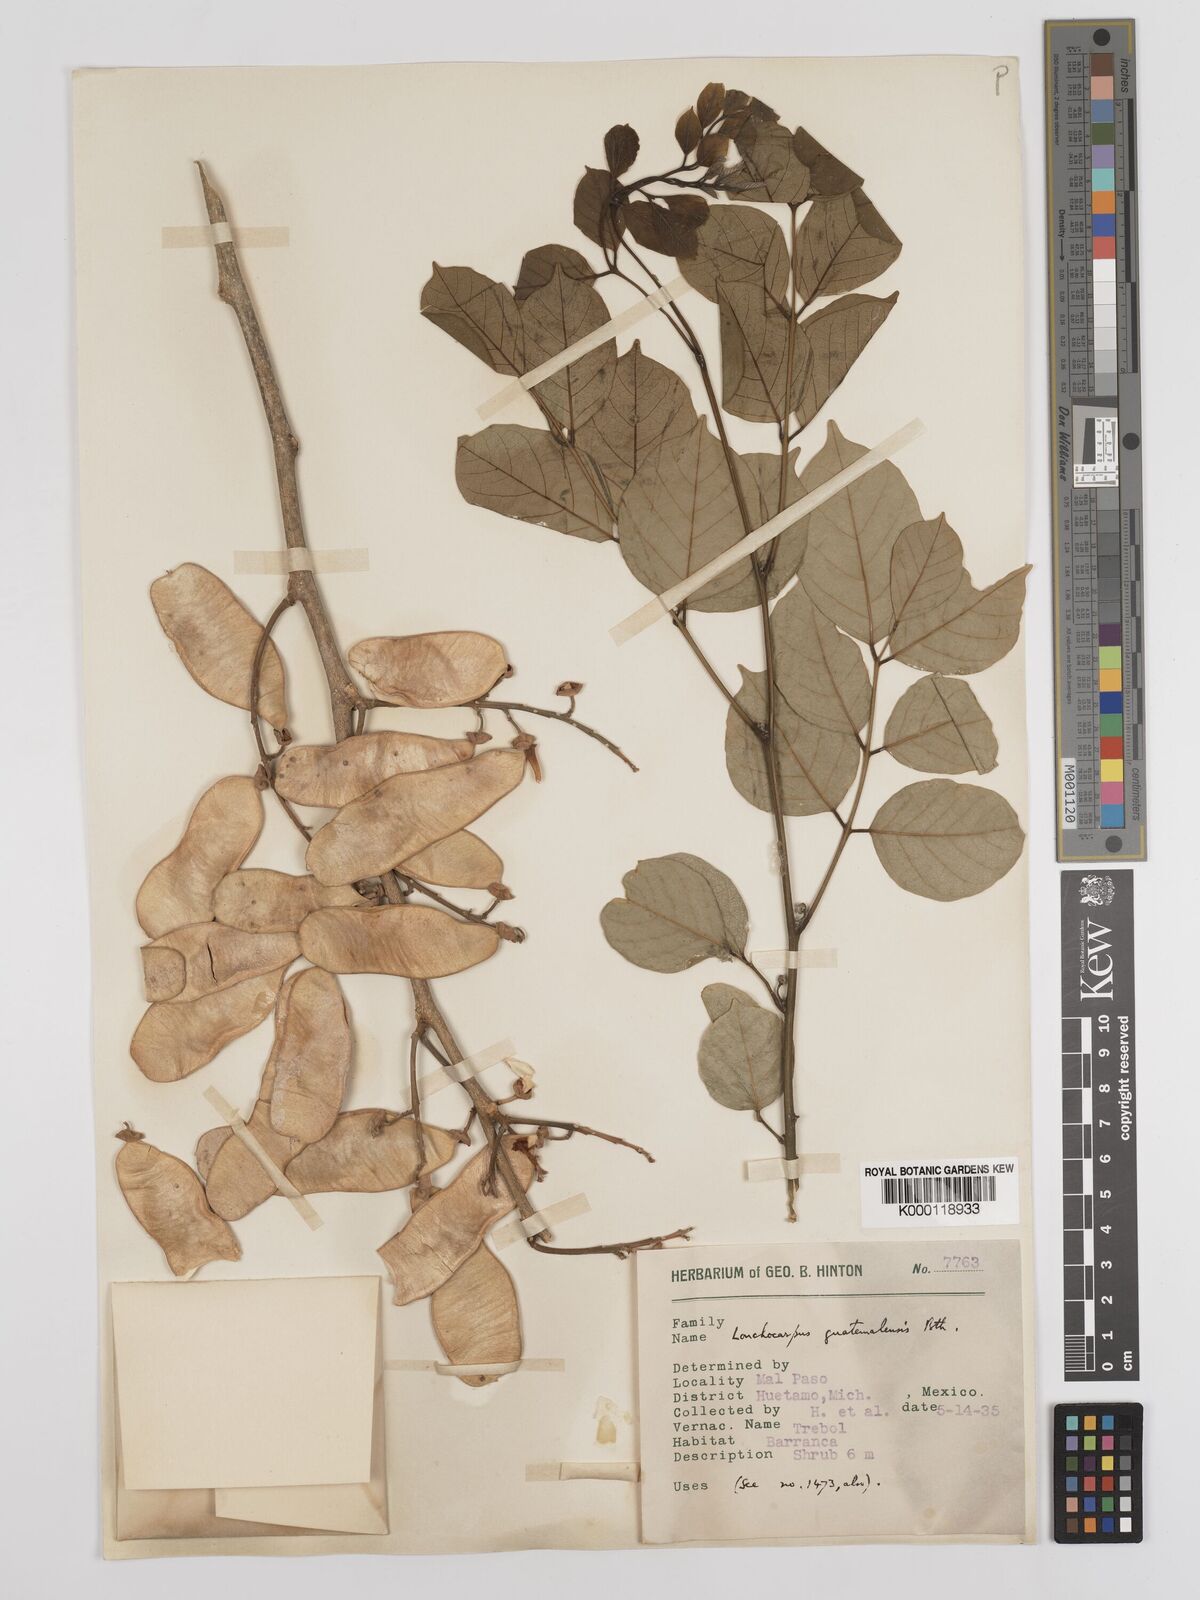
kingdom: Plantae
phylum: Tracheophyta
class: Magnoliopsida
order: Fabales
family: Fabaceae
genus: Lonchocarpus
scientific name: Lonchocarpus caudatus
